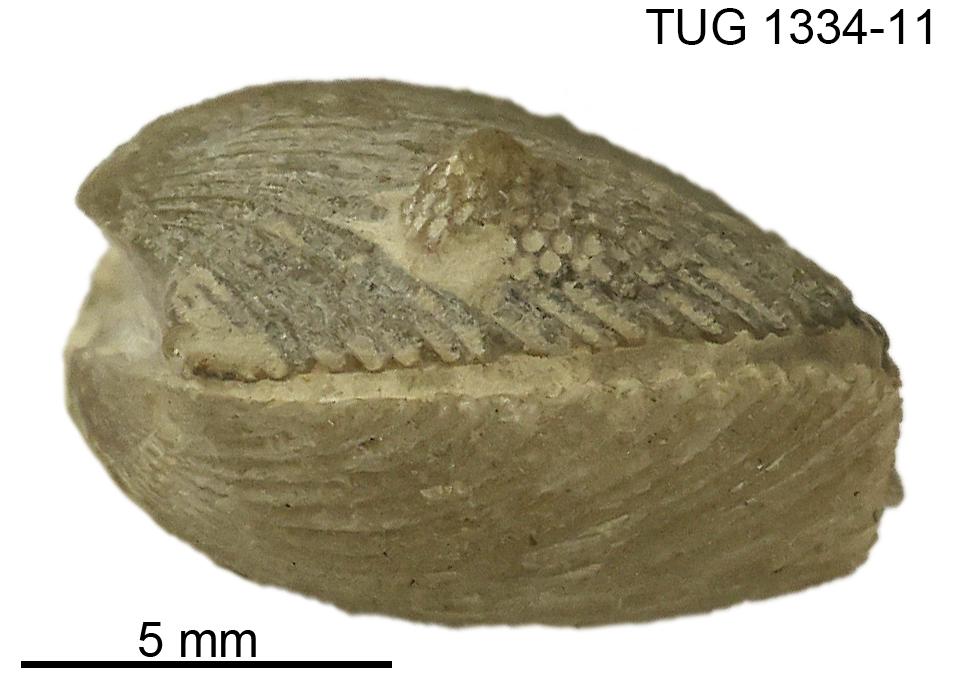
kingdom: Animalia
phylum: Brachiopoda
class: Rhynchonellata
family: Plectorthidae
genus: Hebertella
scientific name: Hebertella estonica
